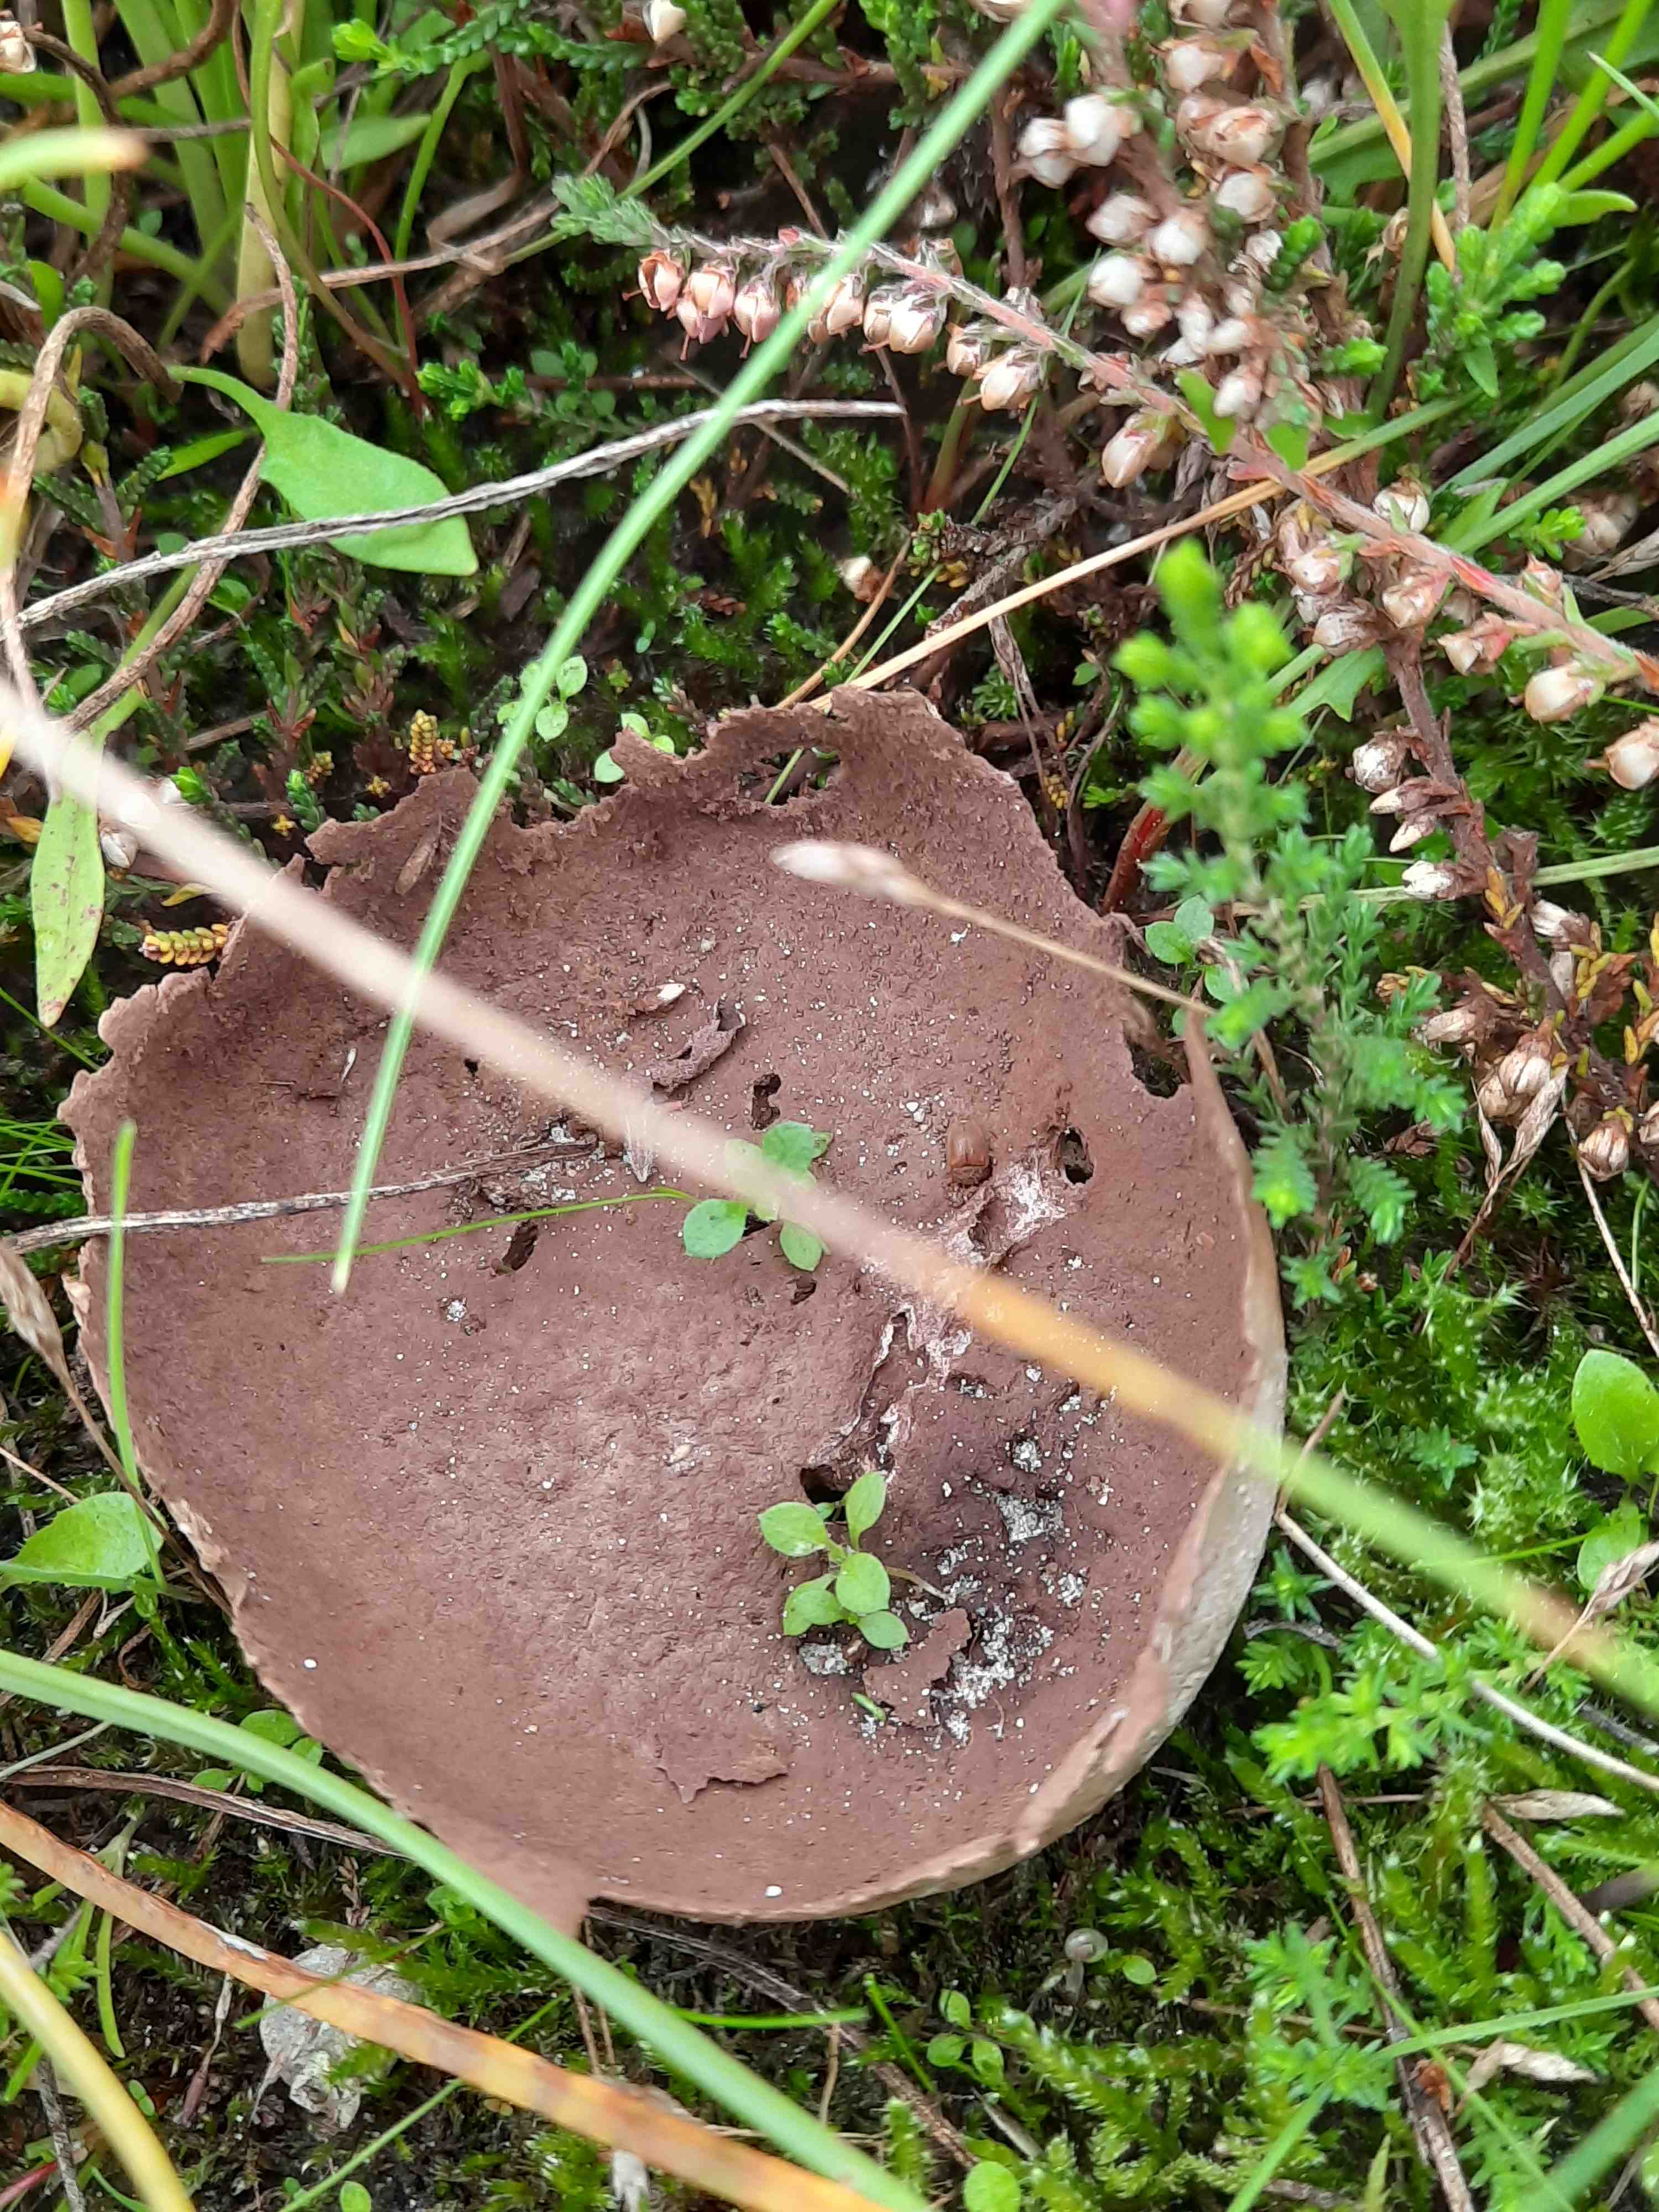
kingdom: Fungi
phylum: Basidiomycota
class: Agaricomycetes
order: Agaricales
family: Lycoperdaceae
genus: Bovistella
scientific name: Bovistella utriformis
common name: skællet støvbold
